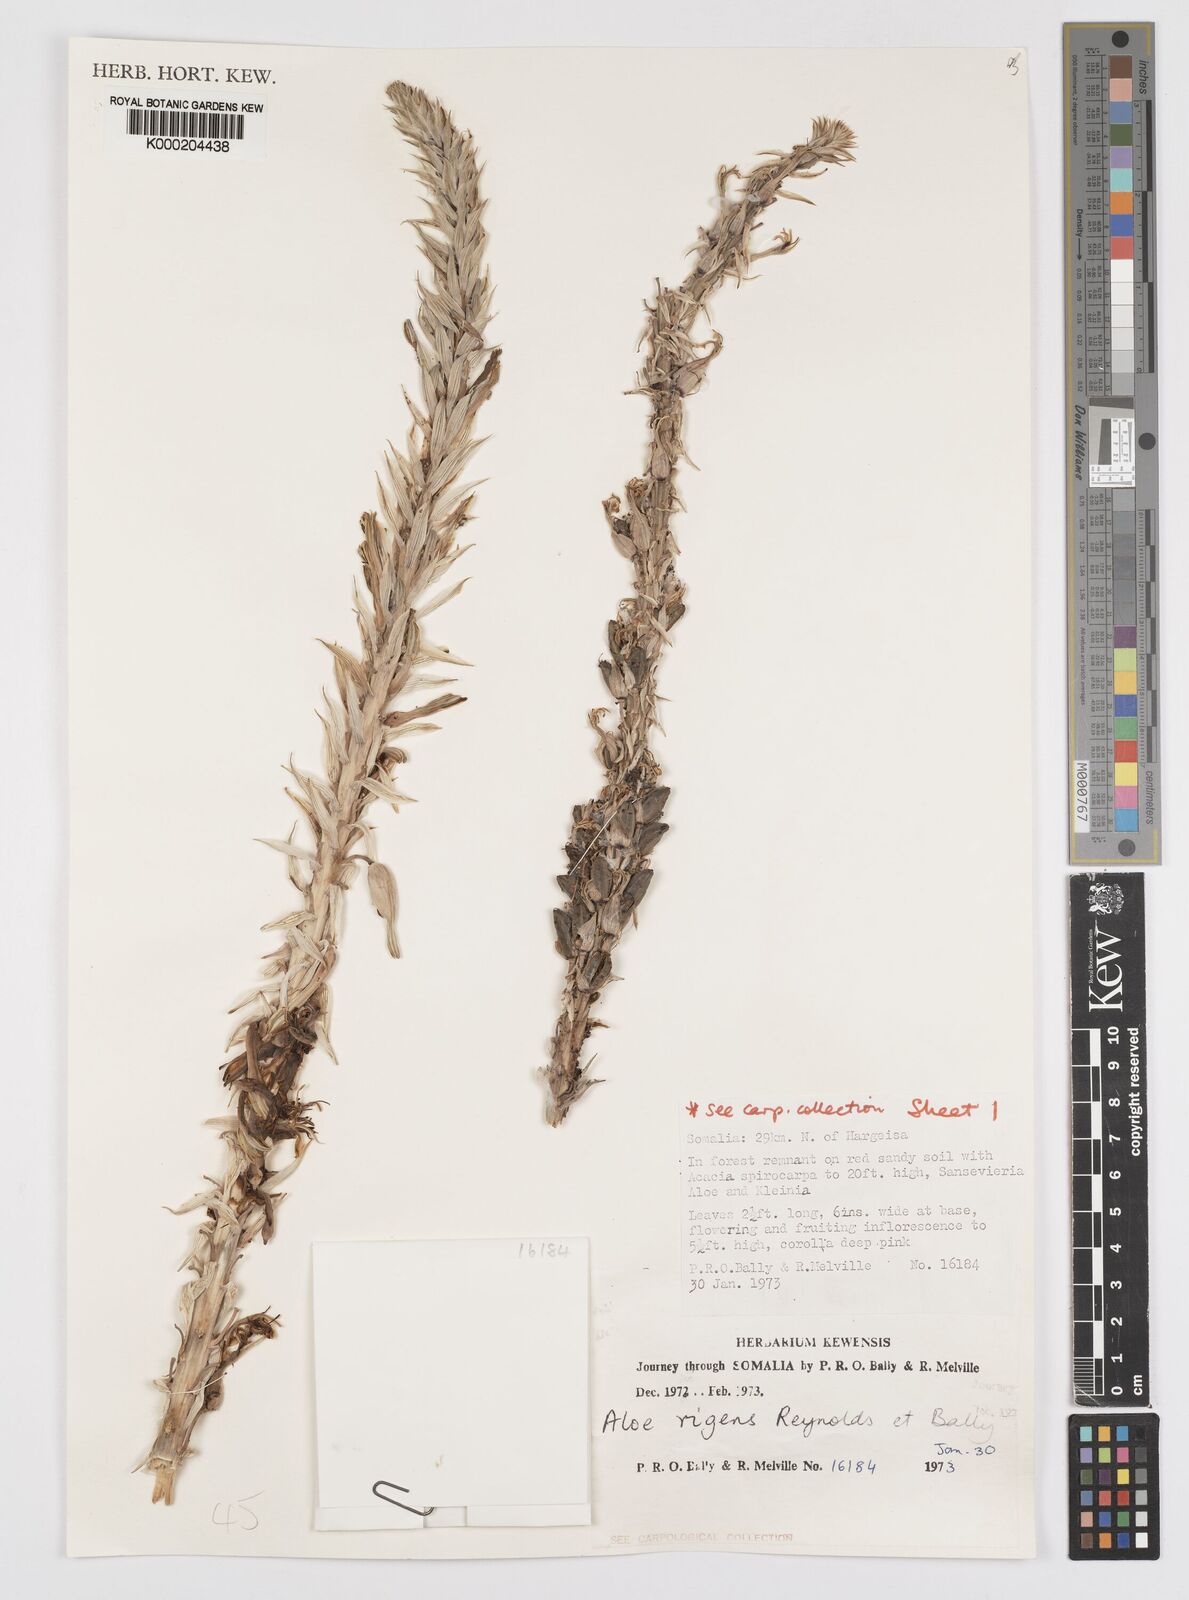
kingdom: Plantae
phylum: Tracheophyta
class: Liliopsida
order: Asparagales
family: Asphodelaceae
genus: Aloe
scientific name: Aloe rigens
